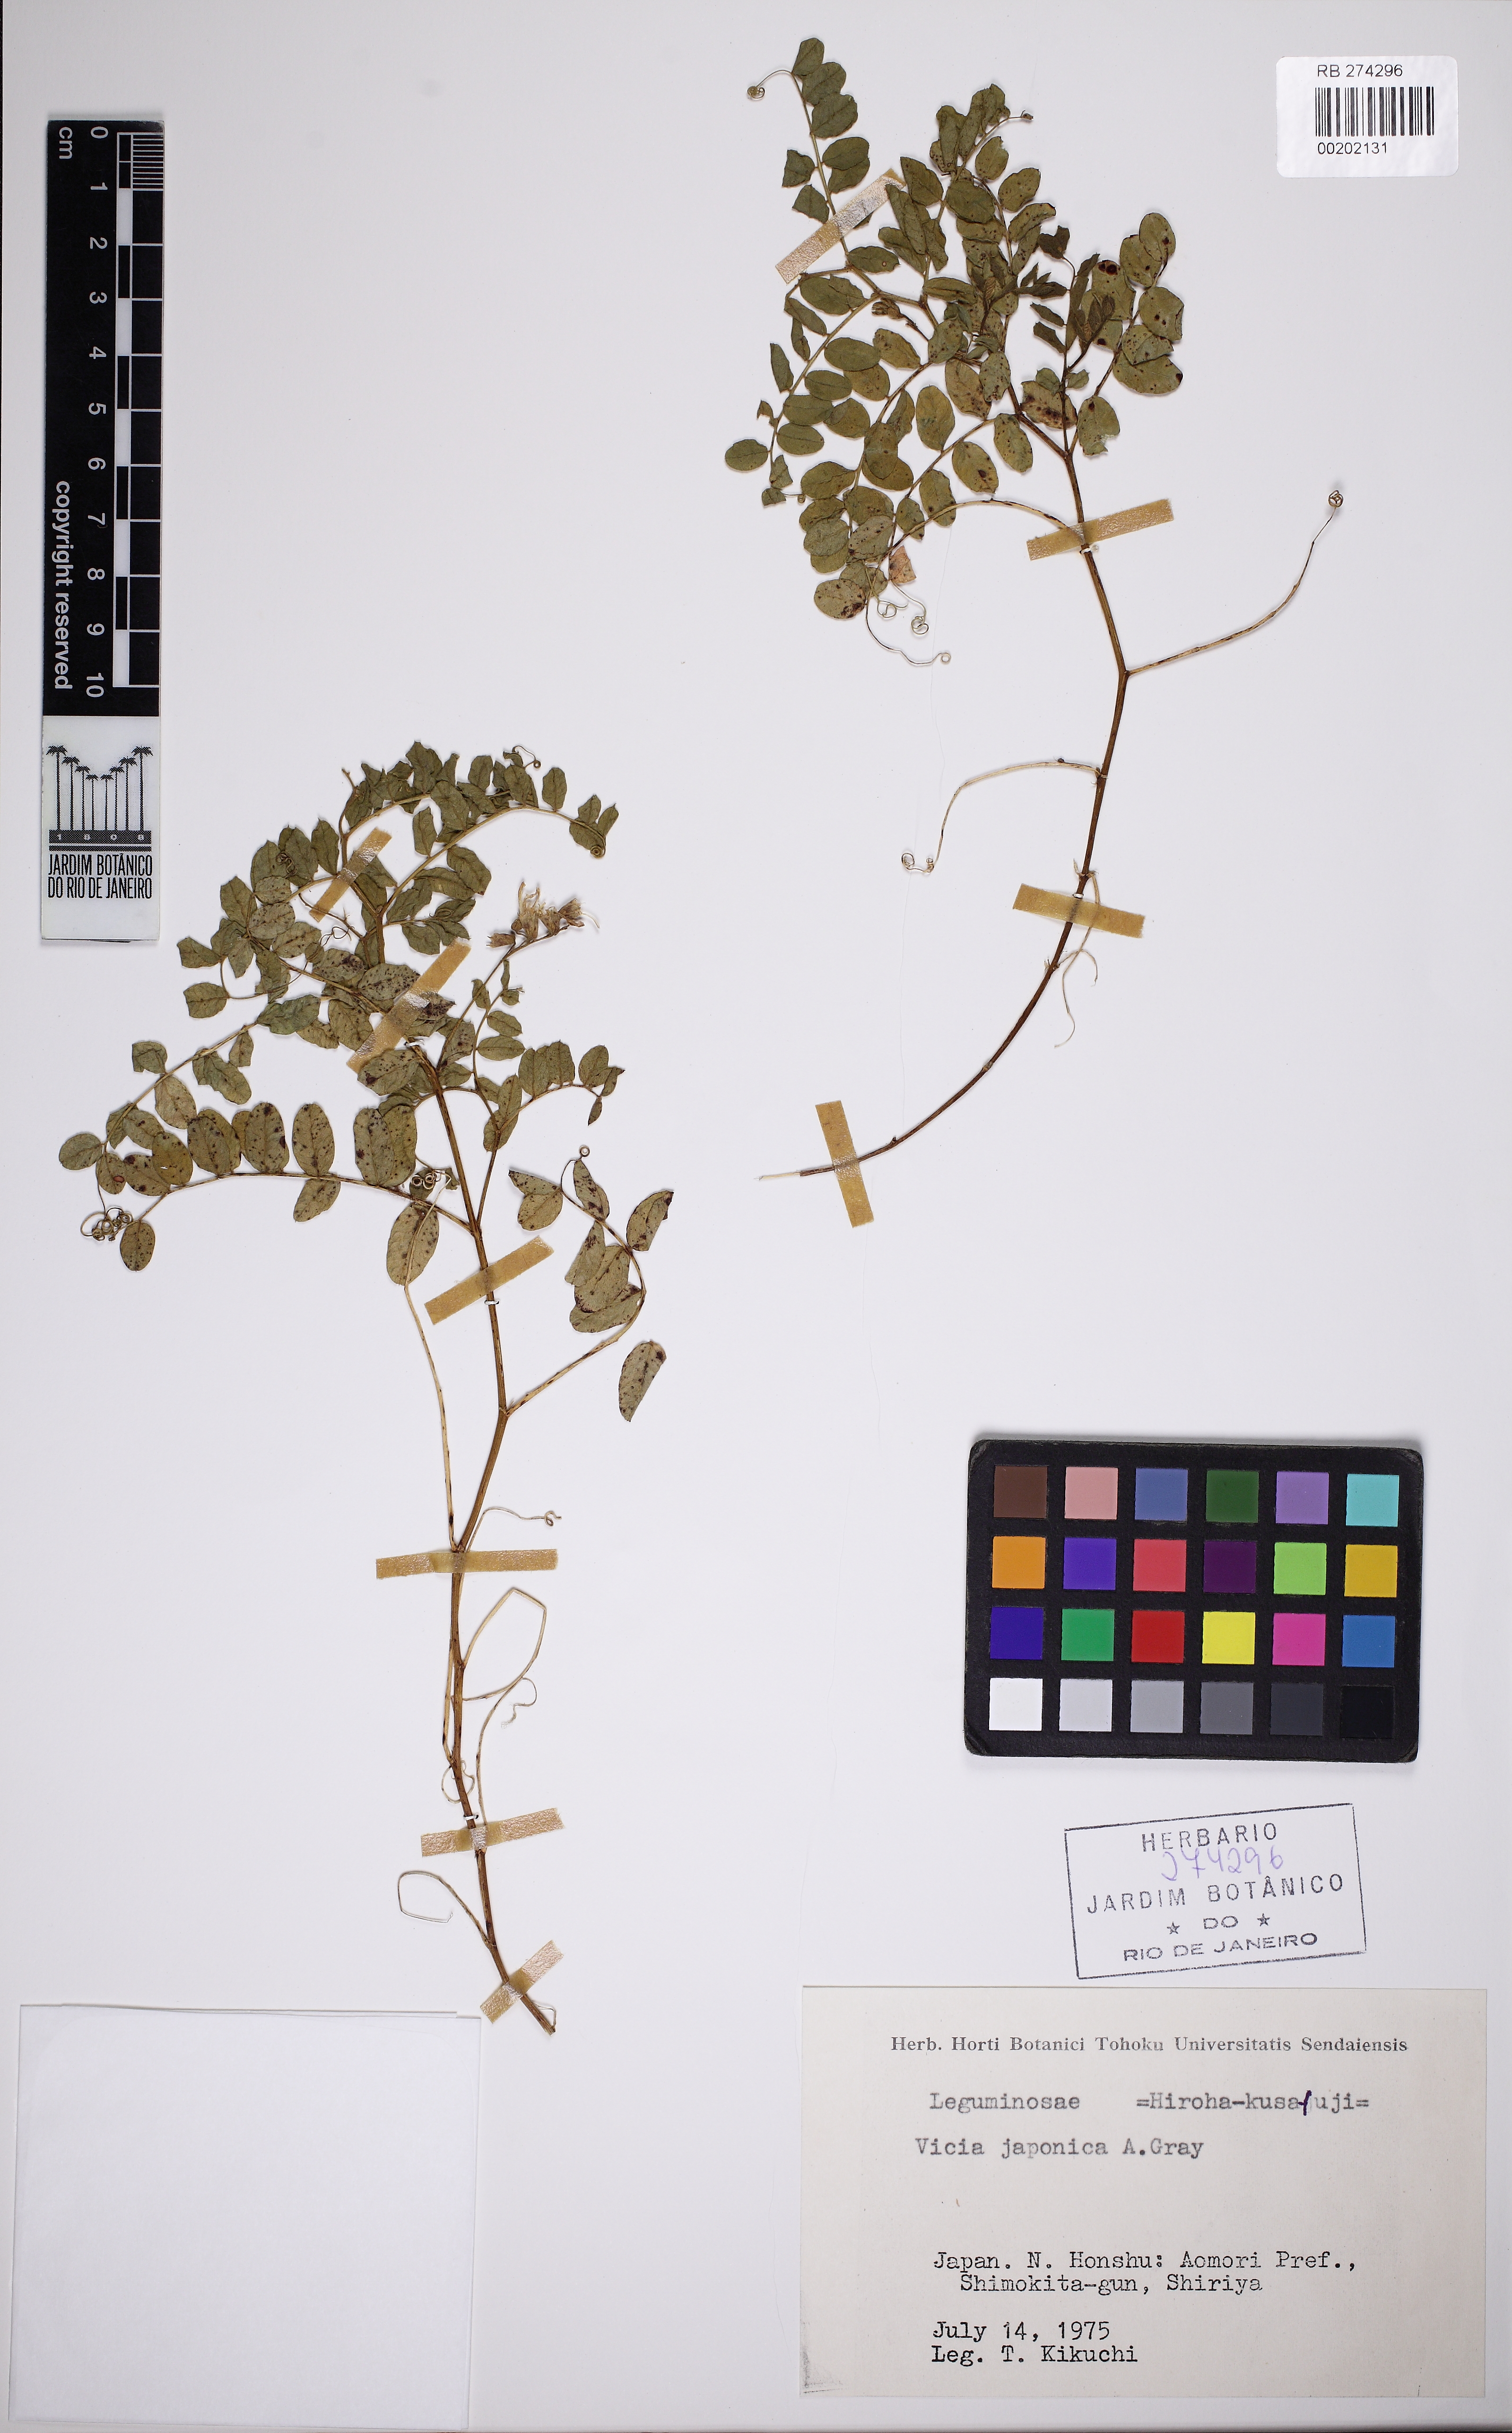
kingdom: Plantae
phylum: Tracheophyta
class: Magnoliopsida
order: Fabales
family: Fabaceae
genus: Vicia
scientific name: Vicia japonica
